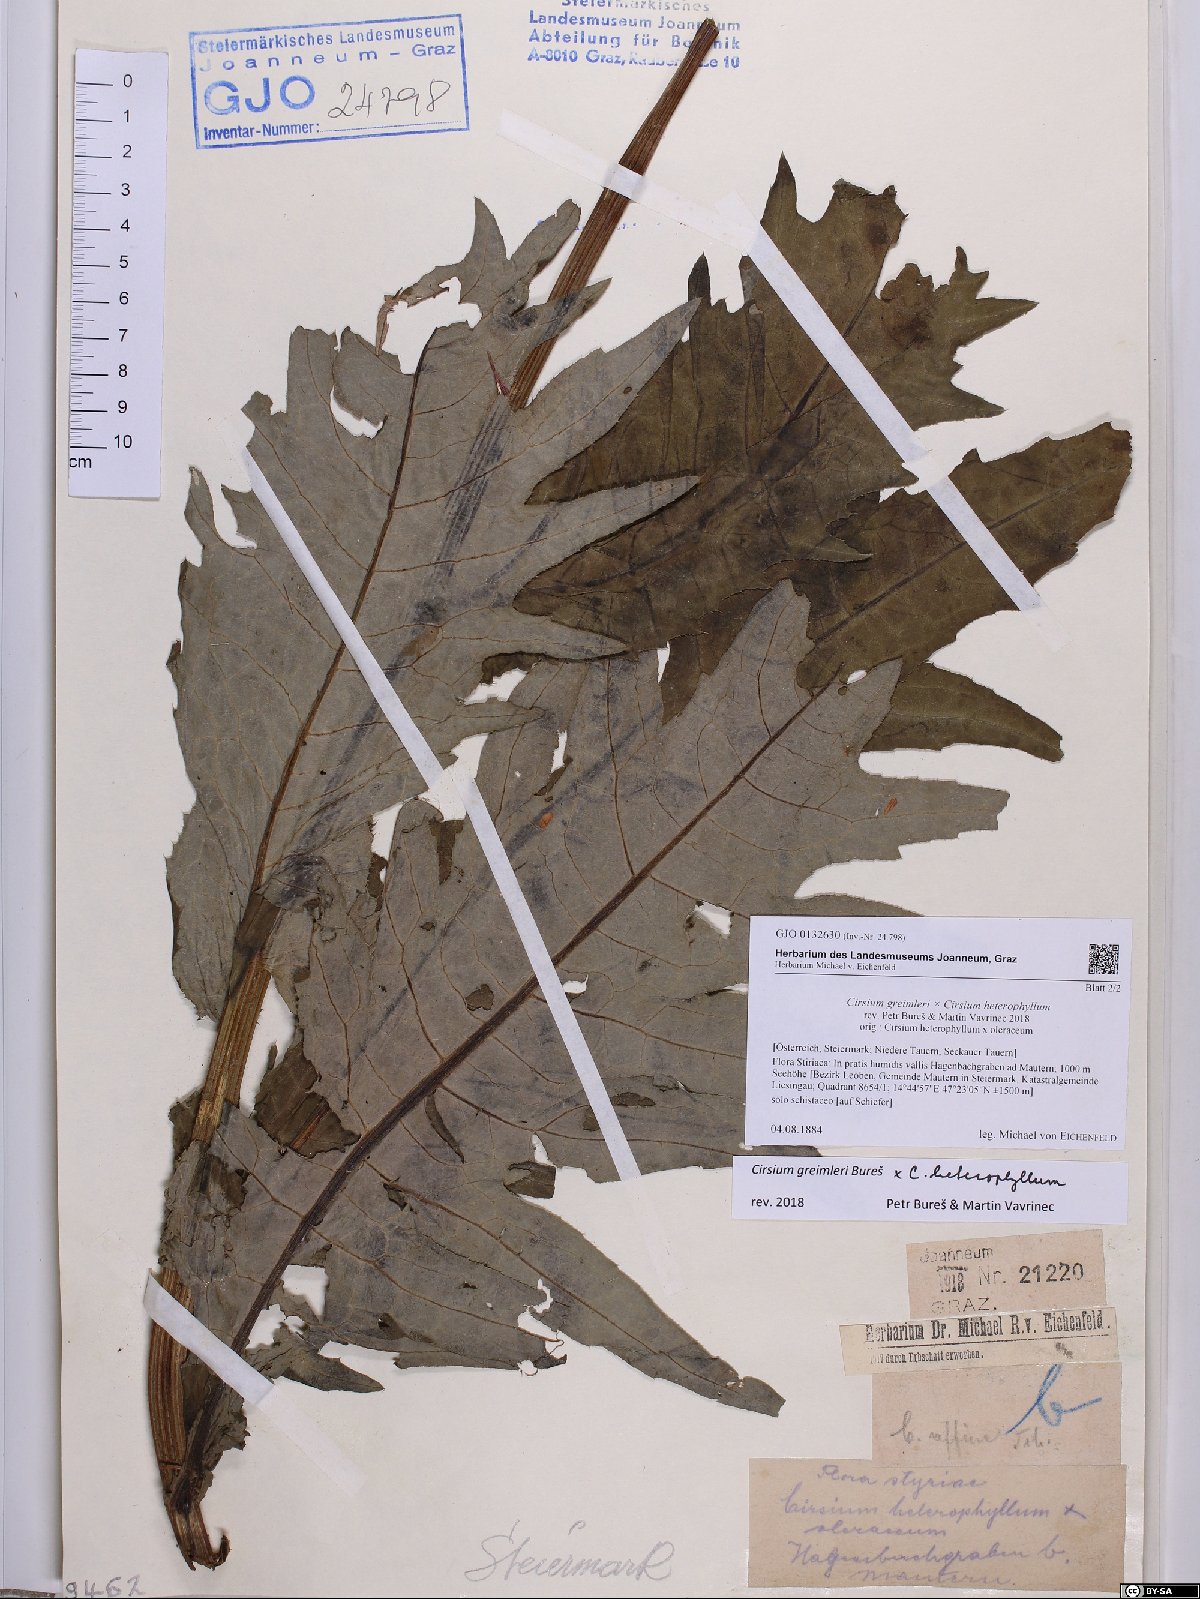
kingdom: Plantae
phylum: Tracheophyta
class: Magnoliopsida
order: Asterales
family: Asteraceae
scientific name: Asteraceae
